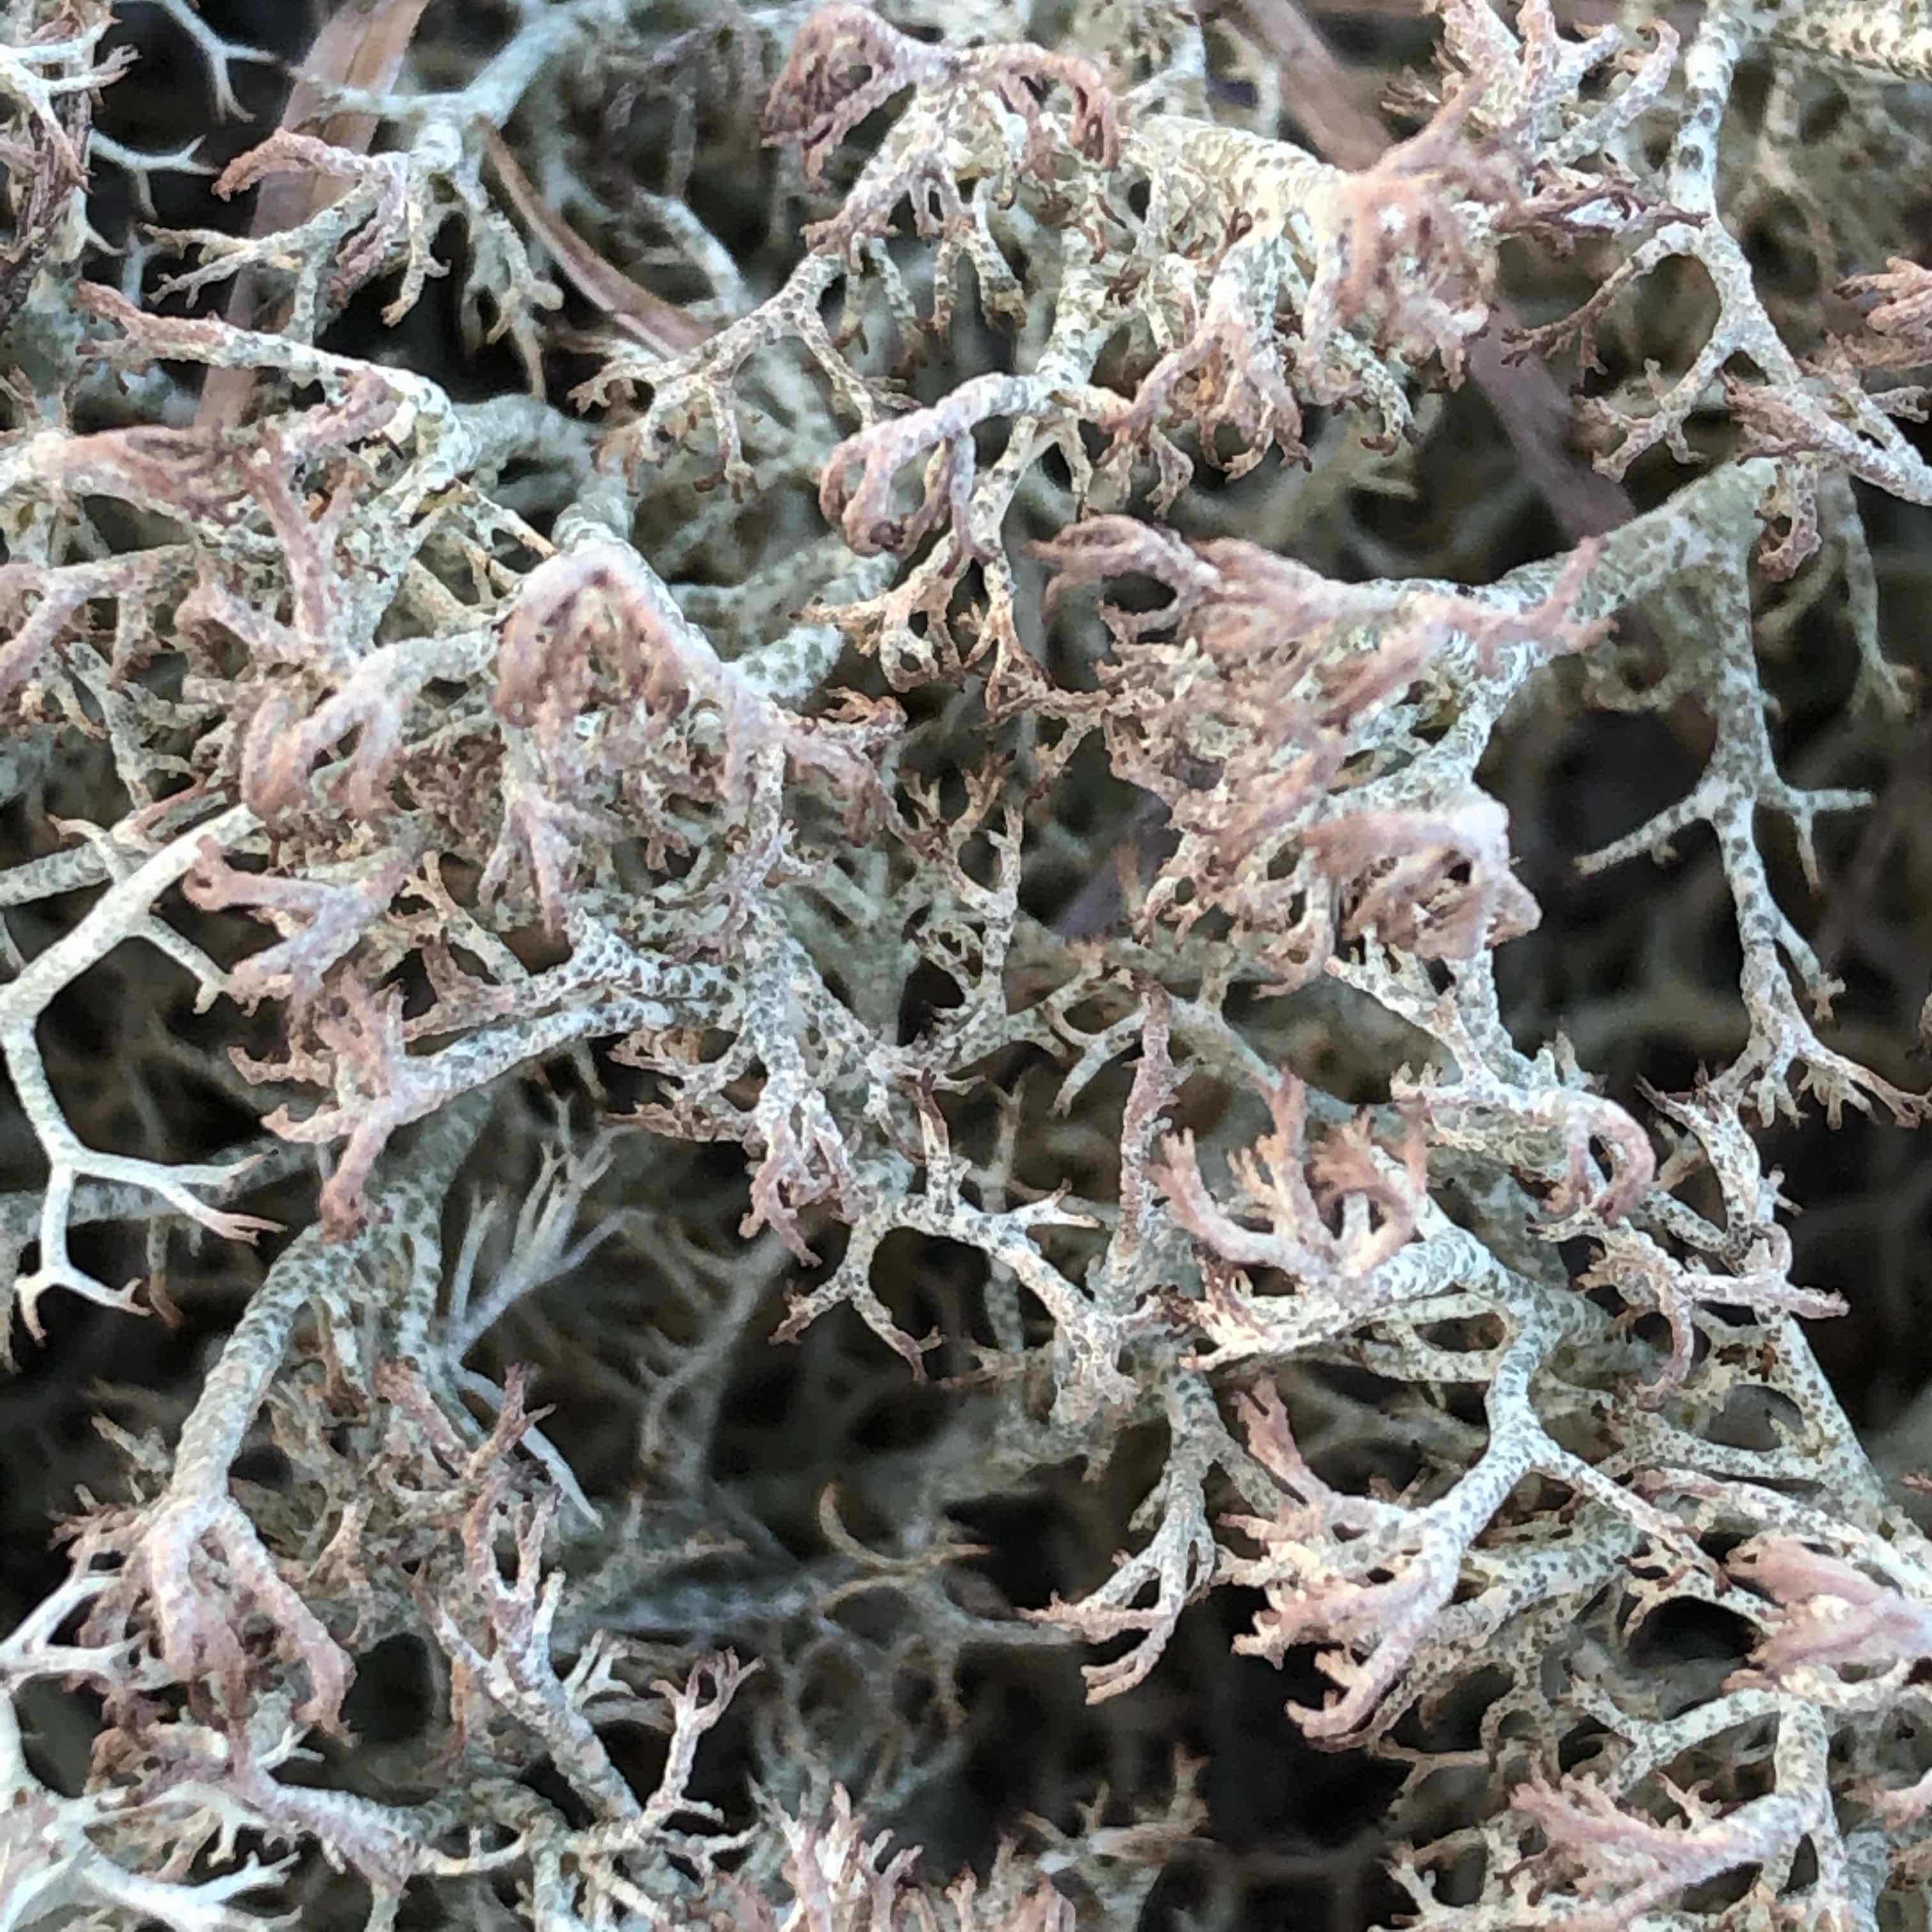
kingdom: Fungi
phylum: Ascomycota
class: Lecanoromycetes
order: Lecanorales
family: Cladoniaceae
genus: Cladonia
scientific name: Cladonia ciliata
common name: spinkel rensdyrlav
